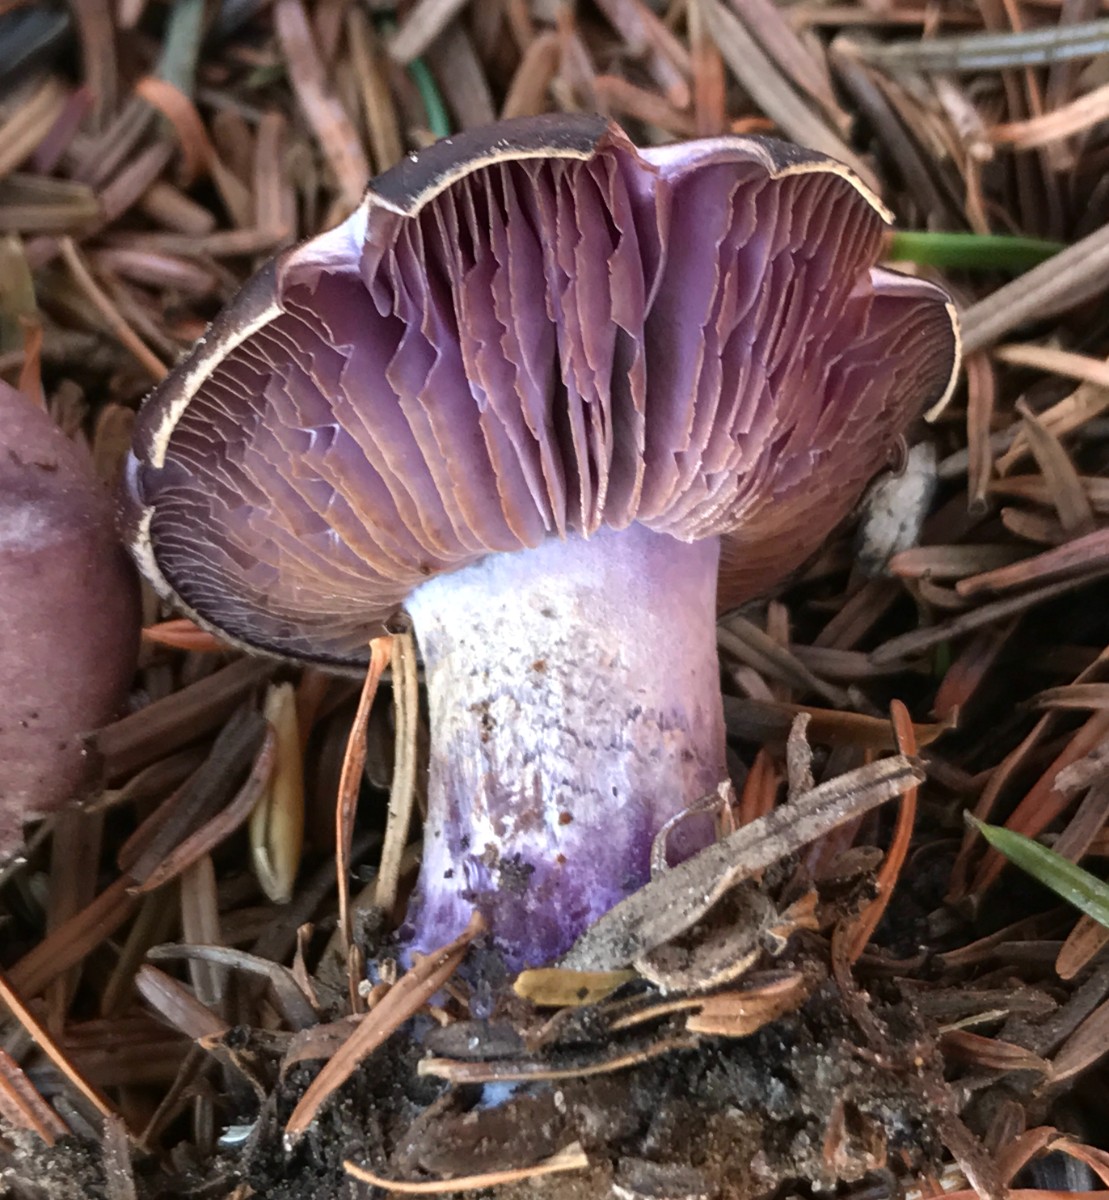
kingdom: Fungi
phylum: Basidiomycota
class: Agaricomycetes
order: Agaricales
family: Tricholomataceae
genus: Lepista
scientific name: Lepista nuda
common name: violet hekseringshat
